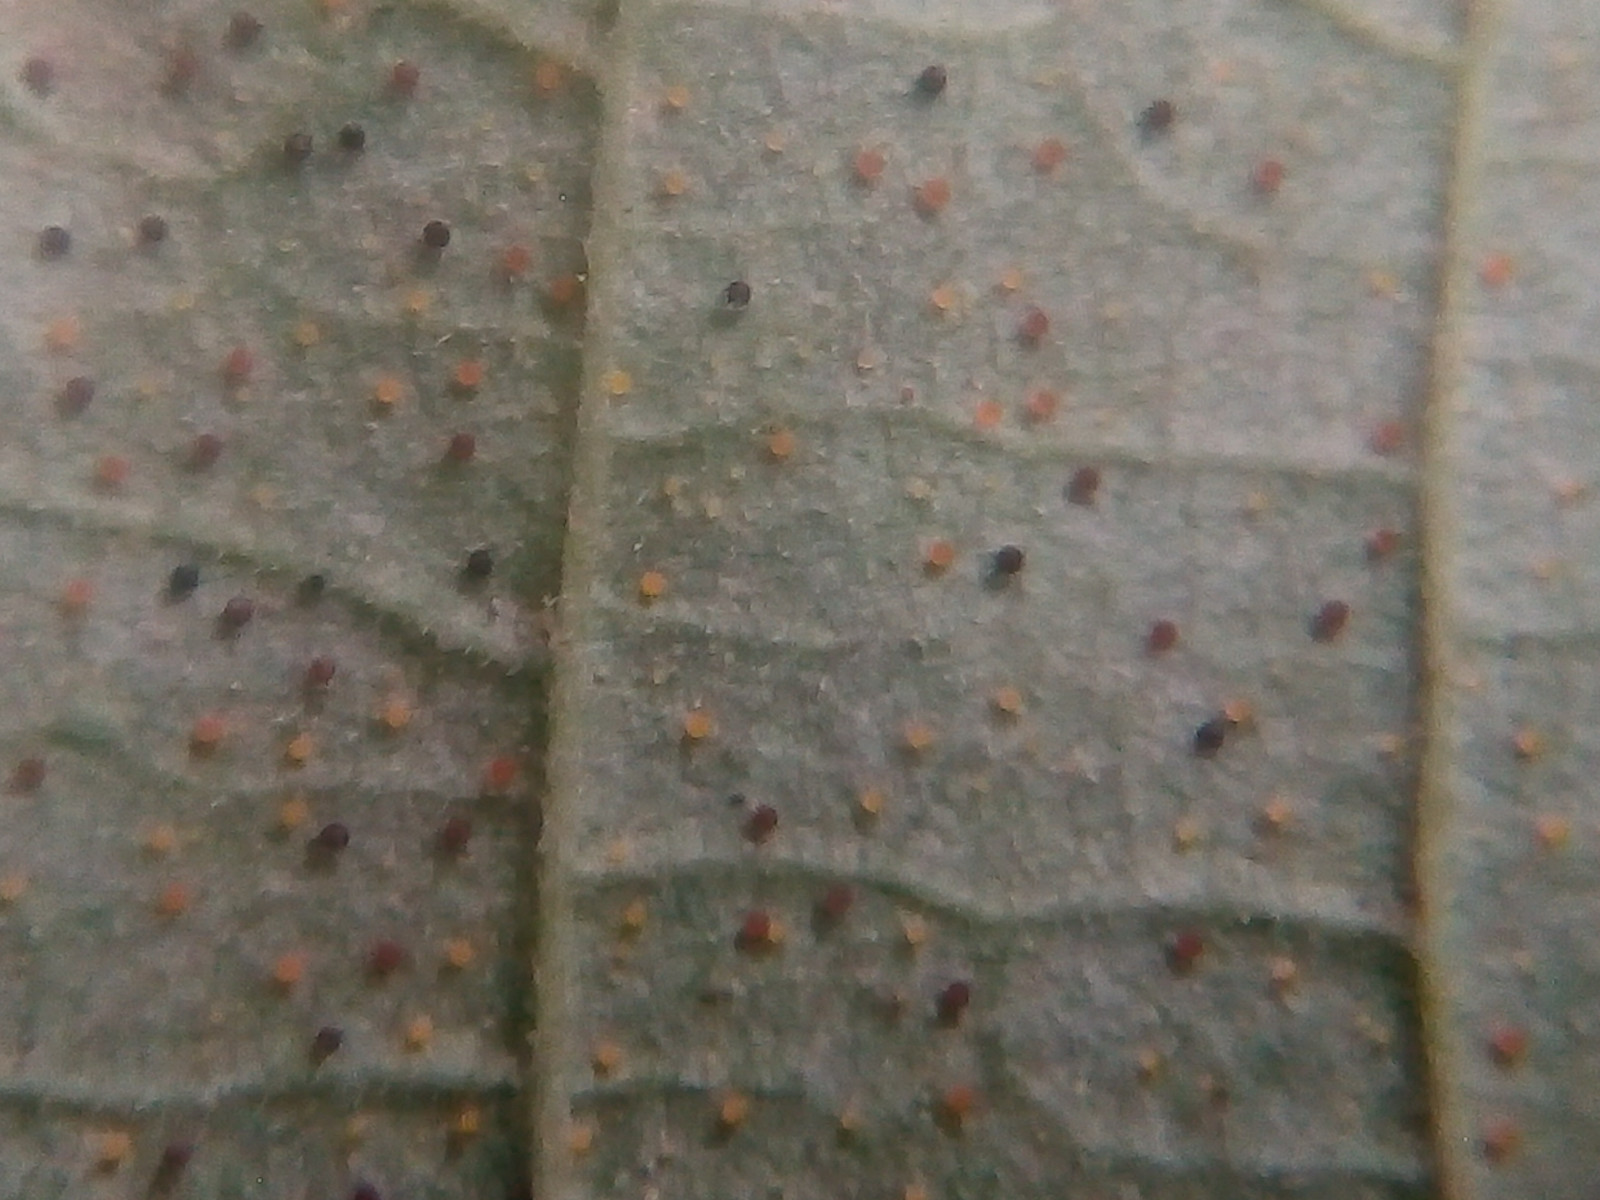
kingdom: Fungi
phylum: Ascomycota
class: Leotiomycetes
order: Helotiales
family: Erysiphaceae
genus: Phyllactinia
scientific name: Phyllactinia guttata
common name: hassel-meldug
